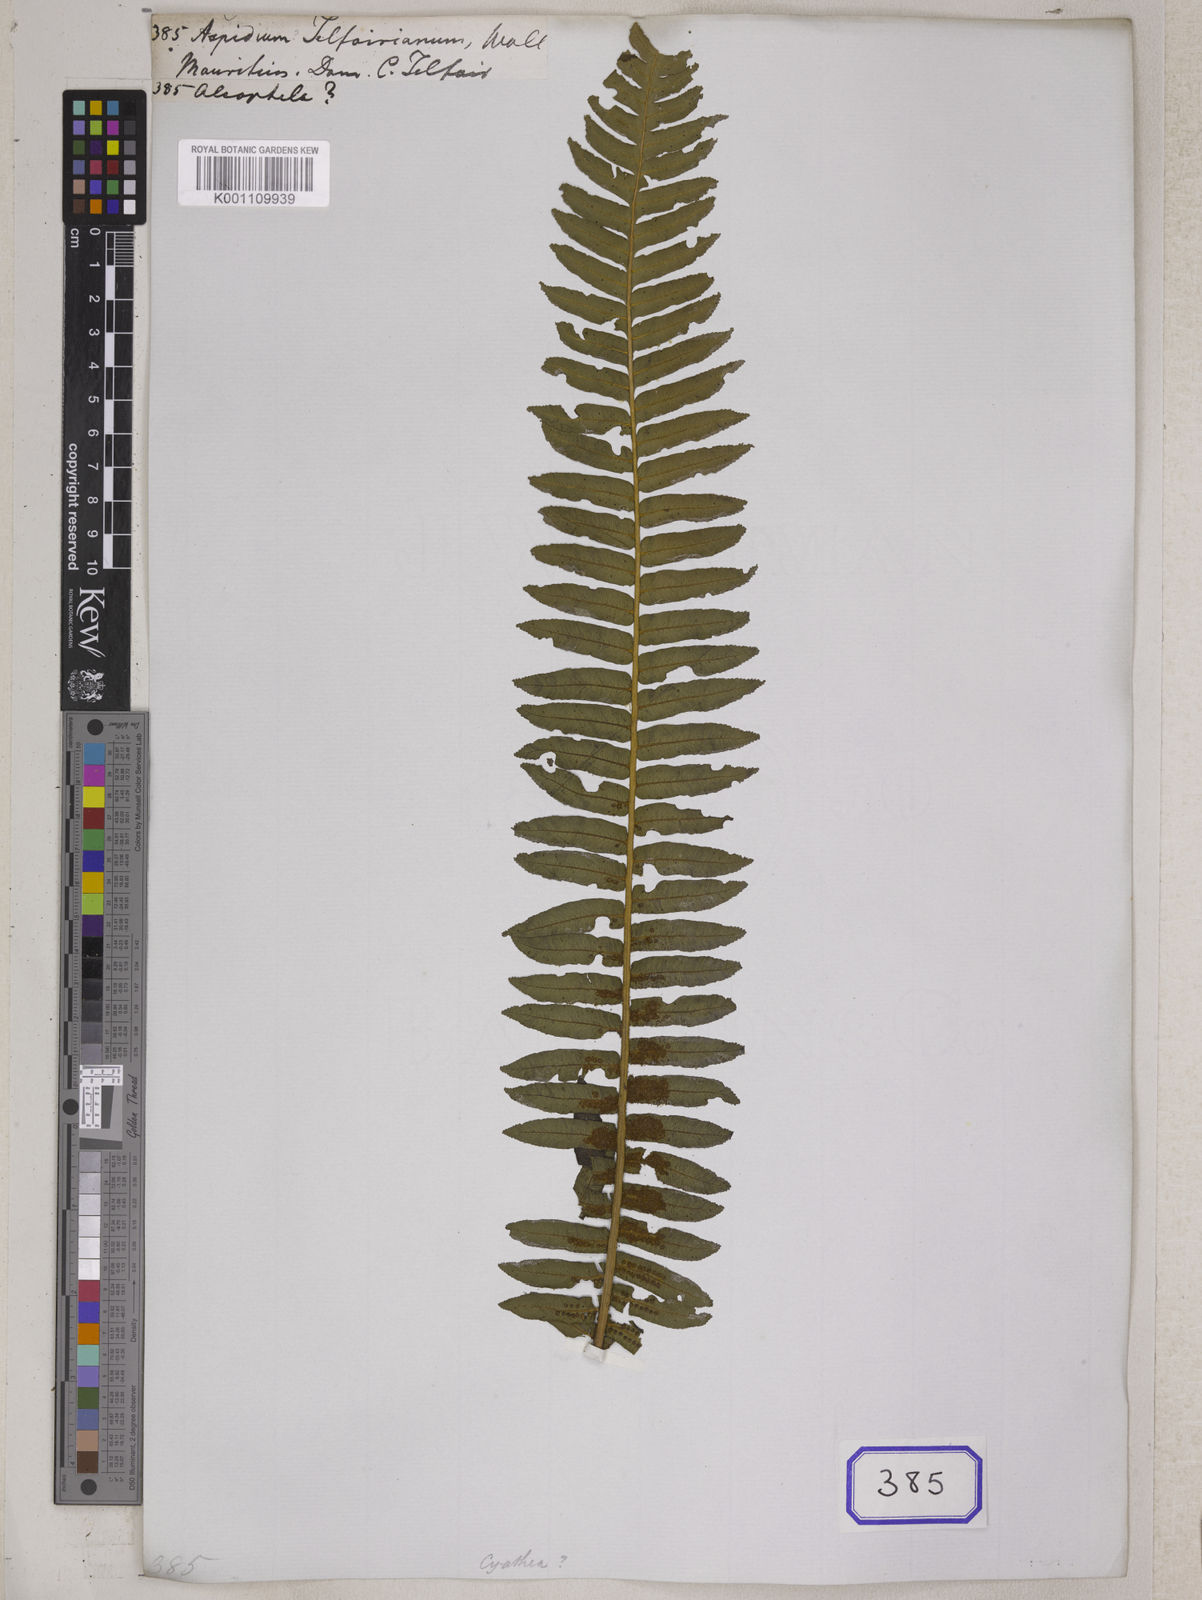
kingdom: Plantae
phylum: Tracheophyta
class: Polypodiopsida
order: Cyatheales
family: Cyatheaceae
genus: Alsophila
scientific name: Alsophila borbonica
